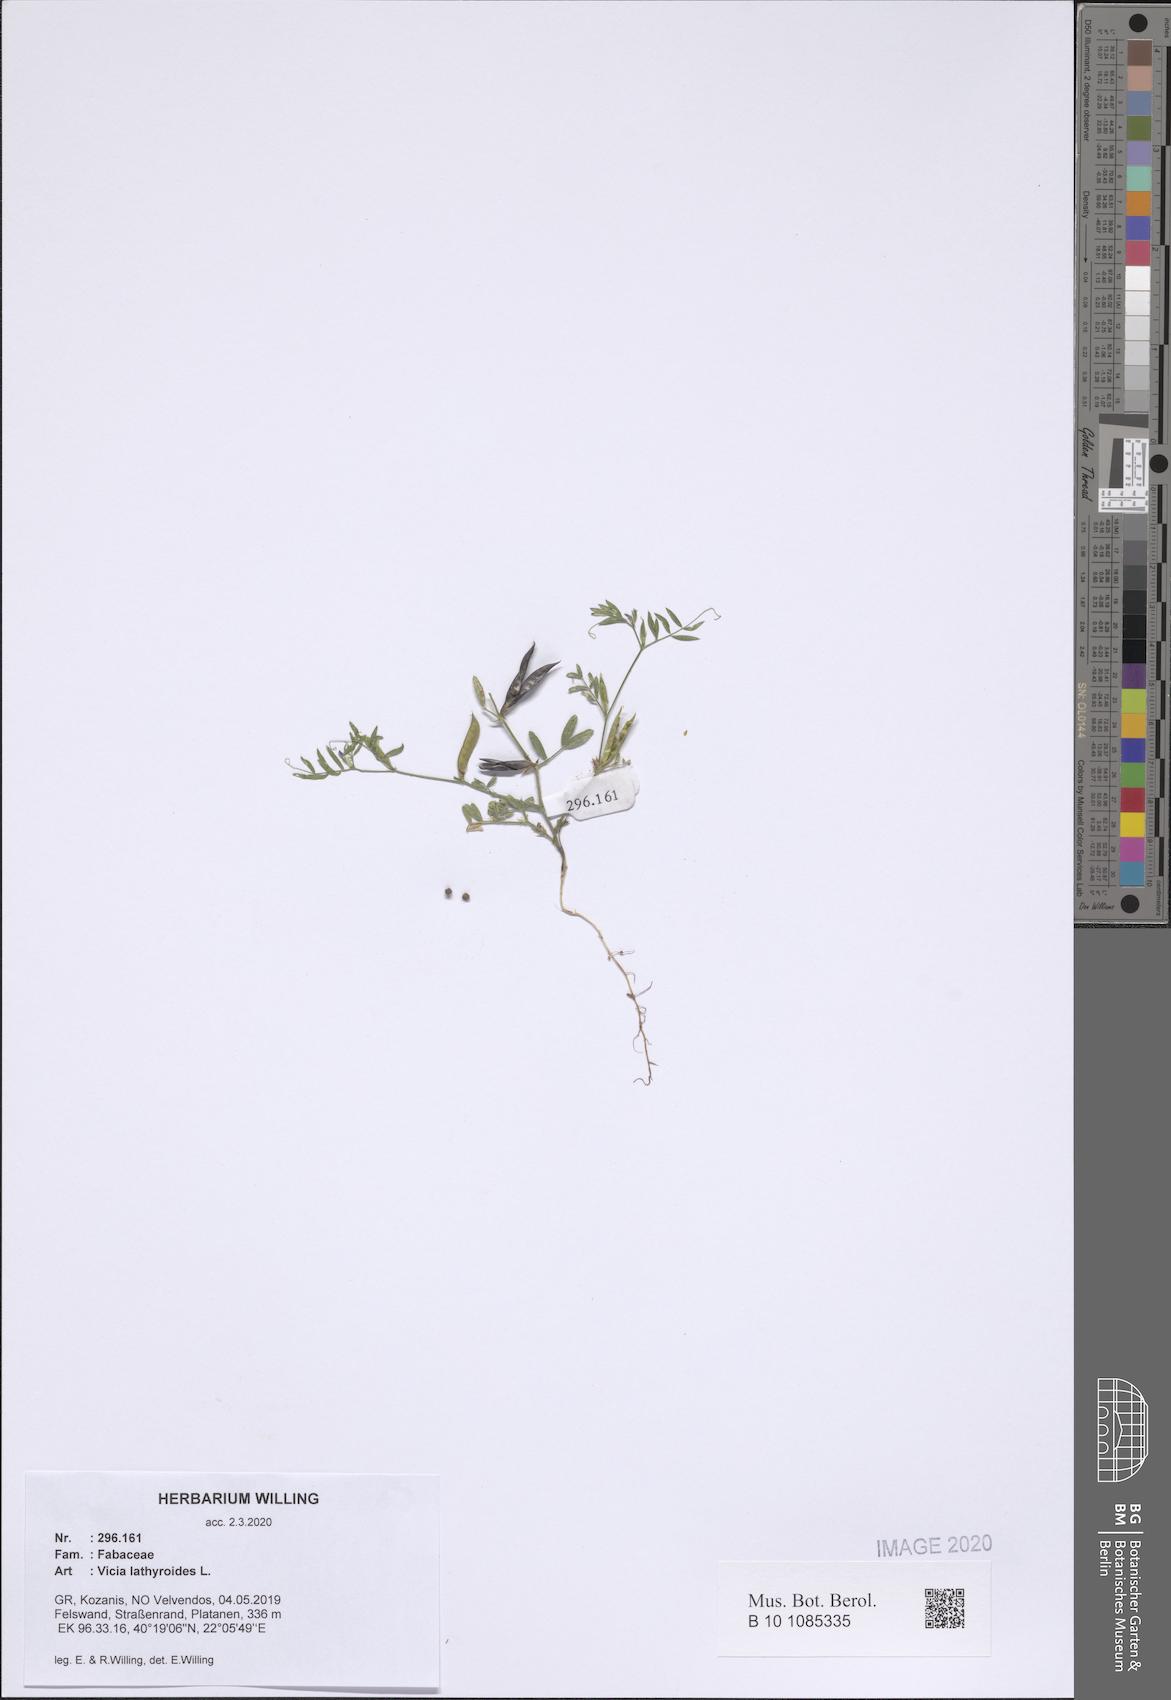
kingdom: Plantae
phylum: Tracheophyta
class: Magnoliopsida
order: Fabales
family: Fabaceae
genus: Vicia
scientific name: Vicia lathyroides
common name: Spring vetch
